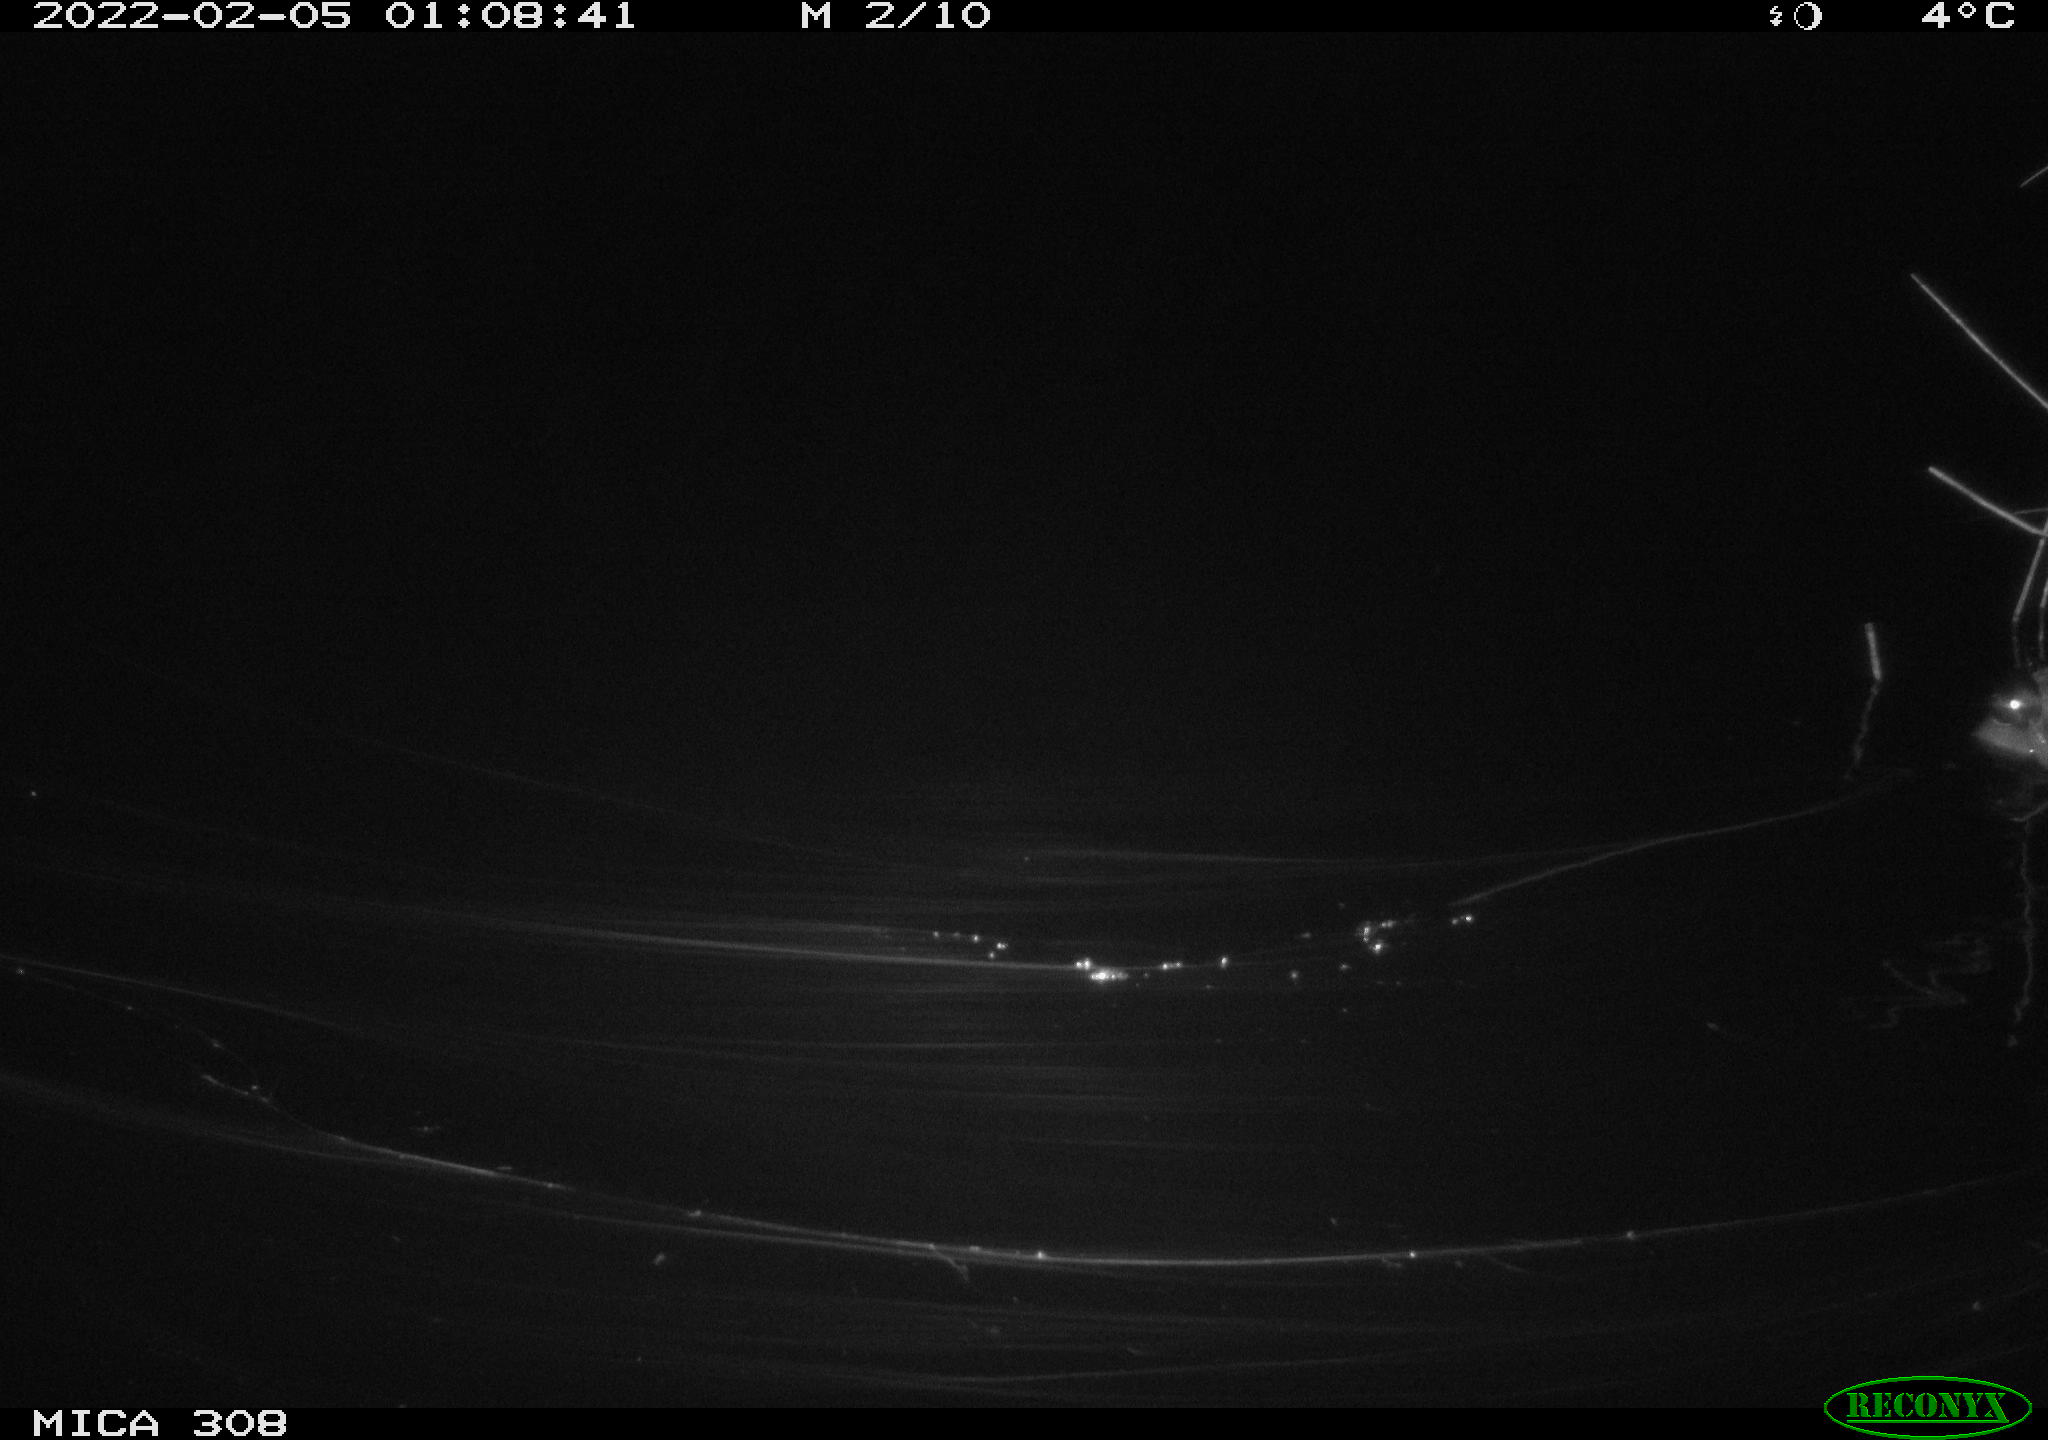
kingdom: Animalia
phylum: Chordata
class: Aves
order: Anseriformes
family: Anatidae
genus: Anas
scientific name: Anas platyrhynchos
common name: Mallard
